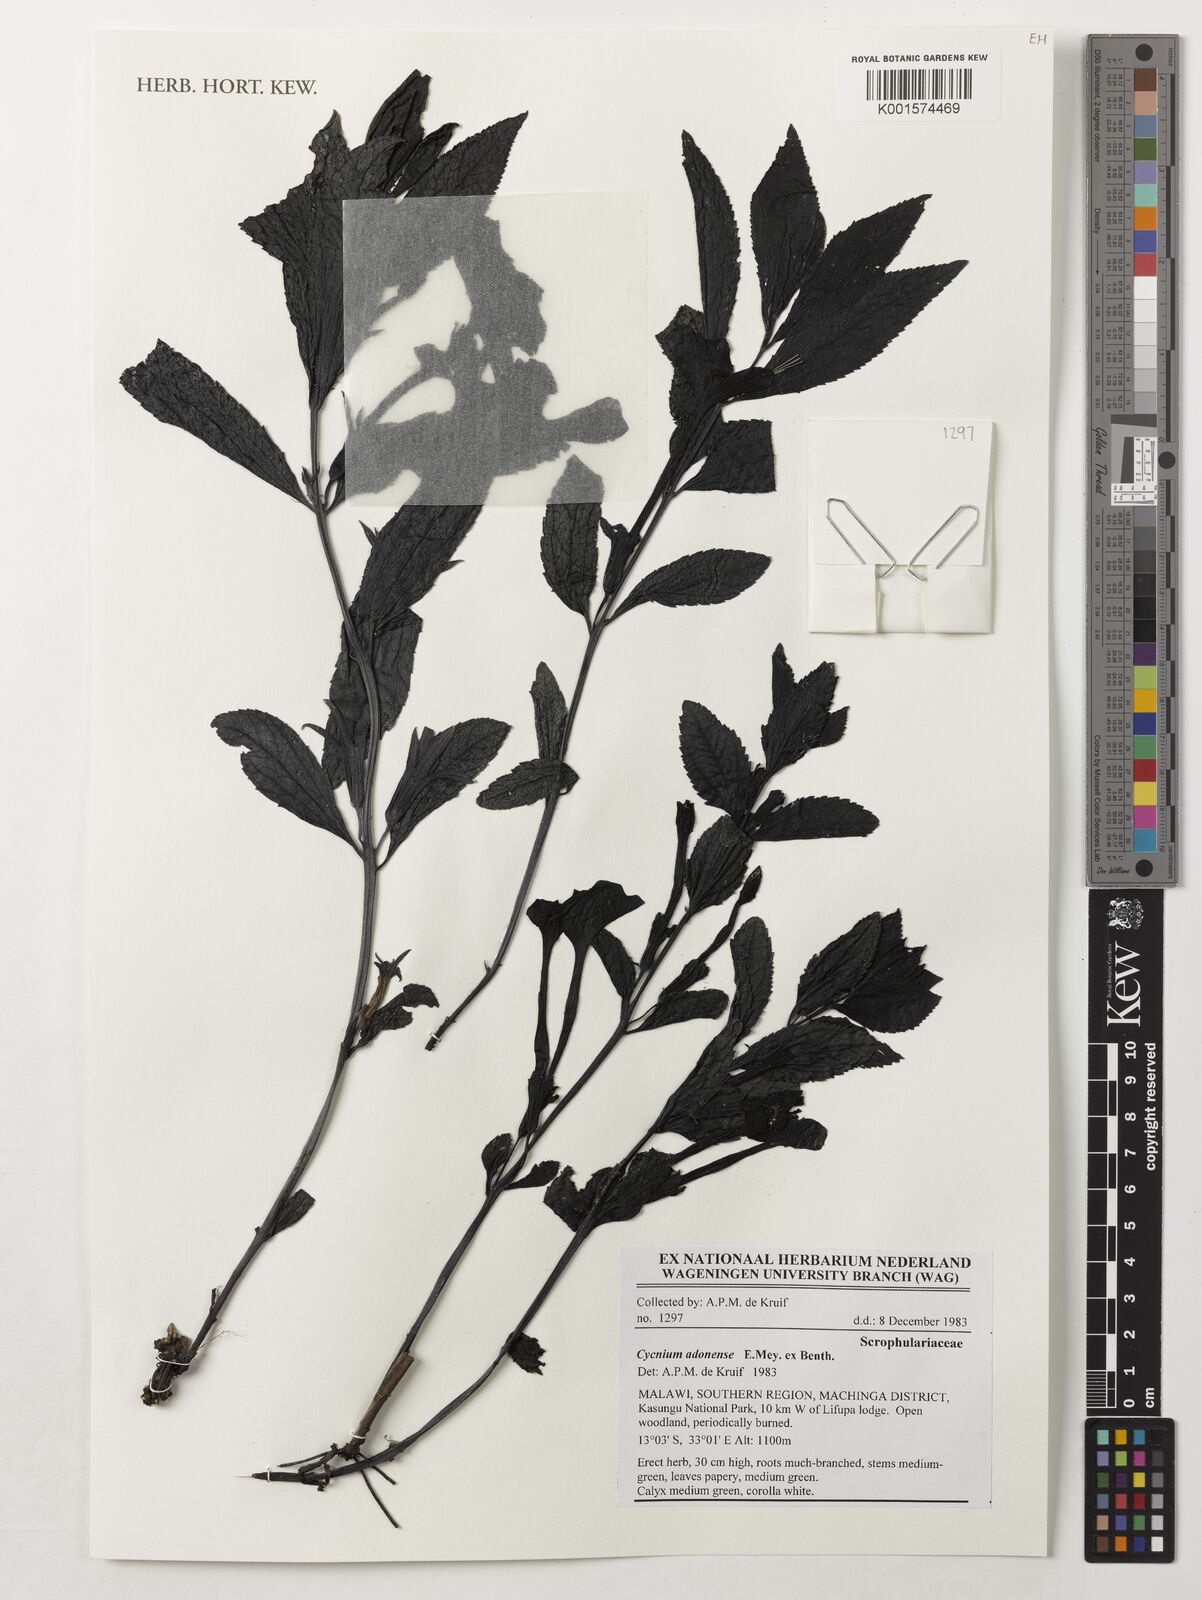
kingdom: Plantae
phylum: Tracheophyta
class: Magnoliopsida
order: Lamiales
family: Orobanchaceae
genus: Cycnium
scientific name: Cycnium adonense
